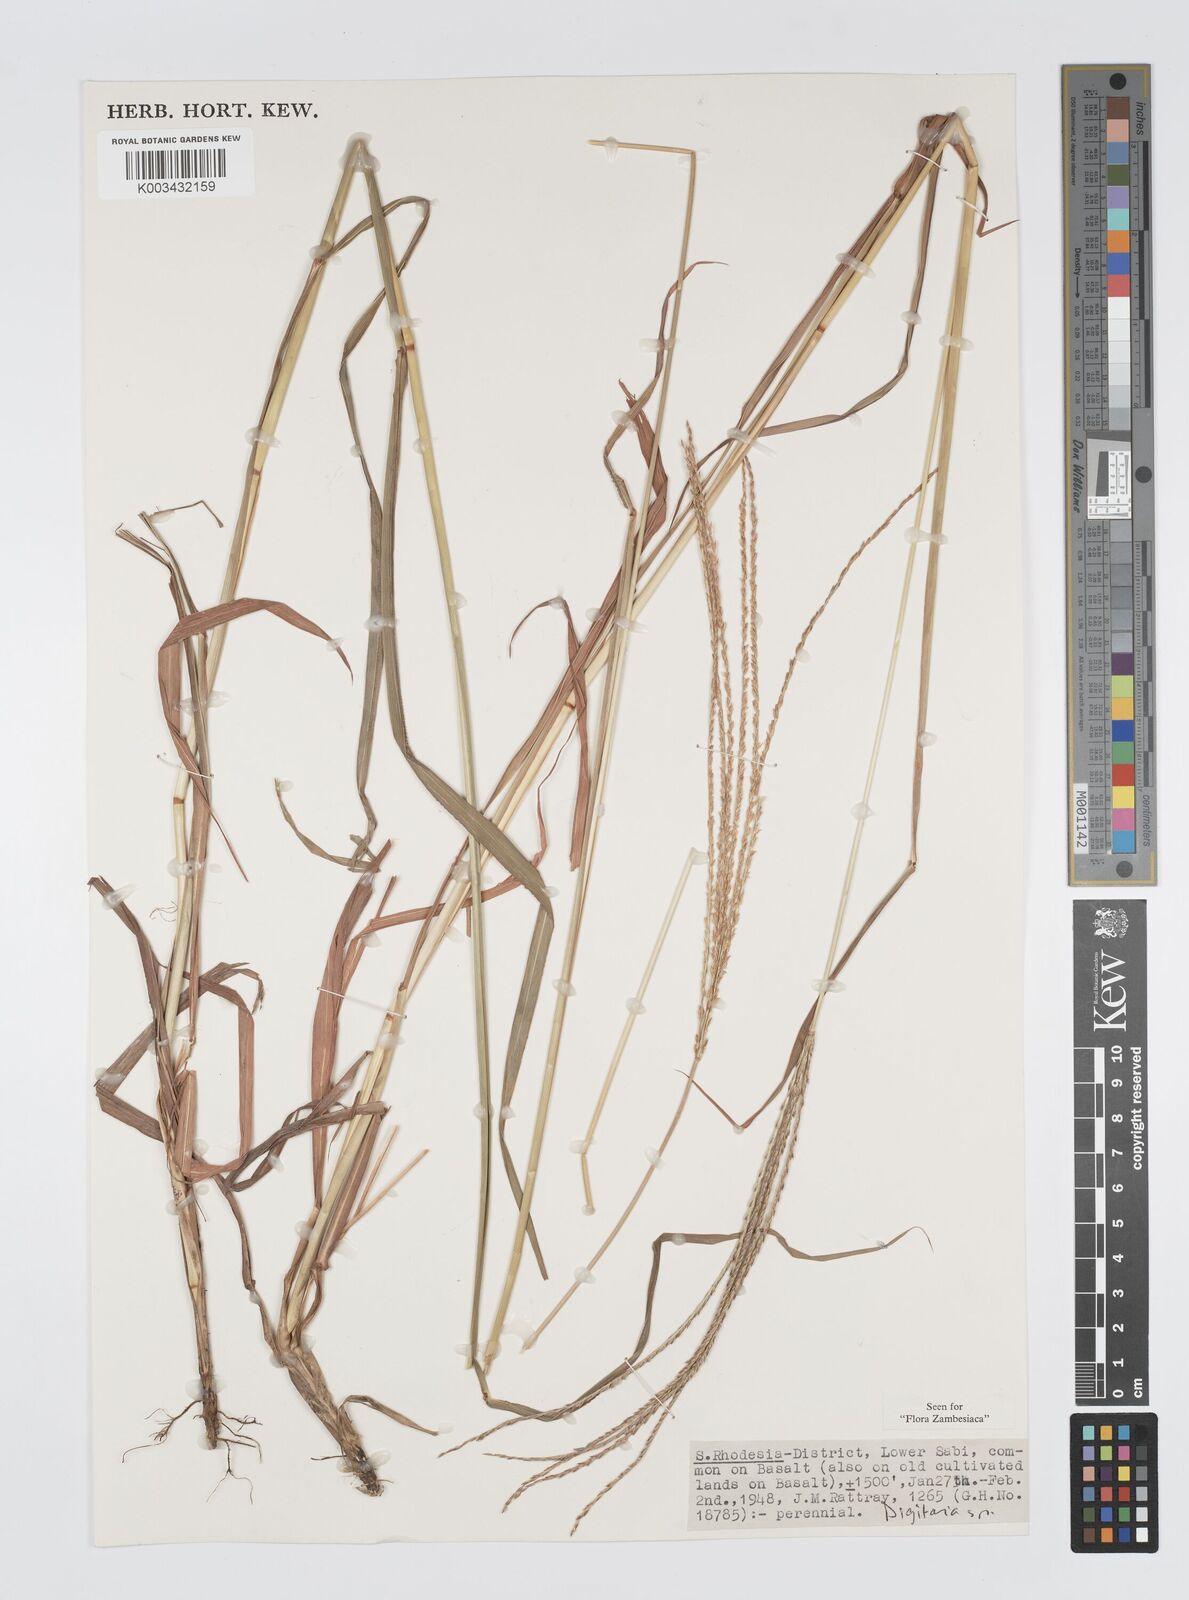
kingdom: Plantae
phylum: Tracheophyta
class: Liliopsida
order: Poales
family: Poaceae
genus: Digitaria
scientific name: Digitaria milanjiana
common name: Madagascar crabgrass
